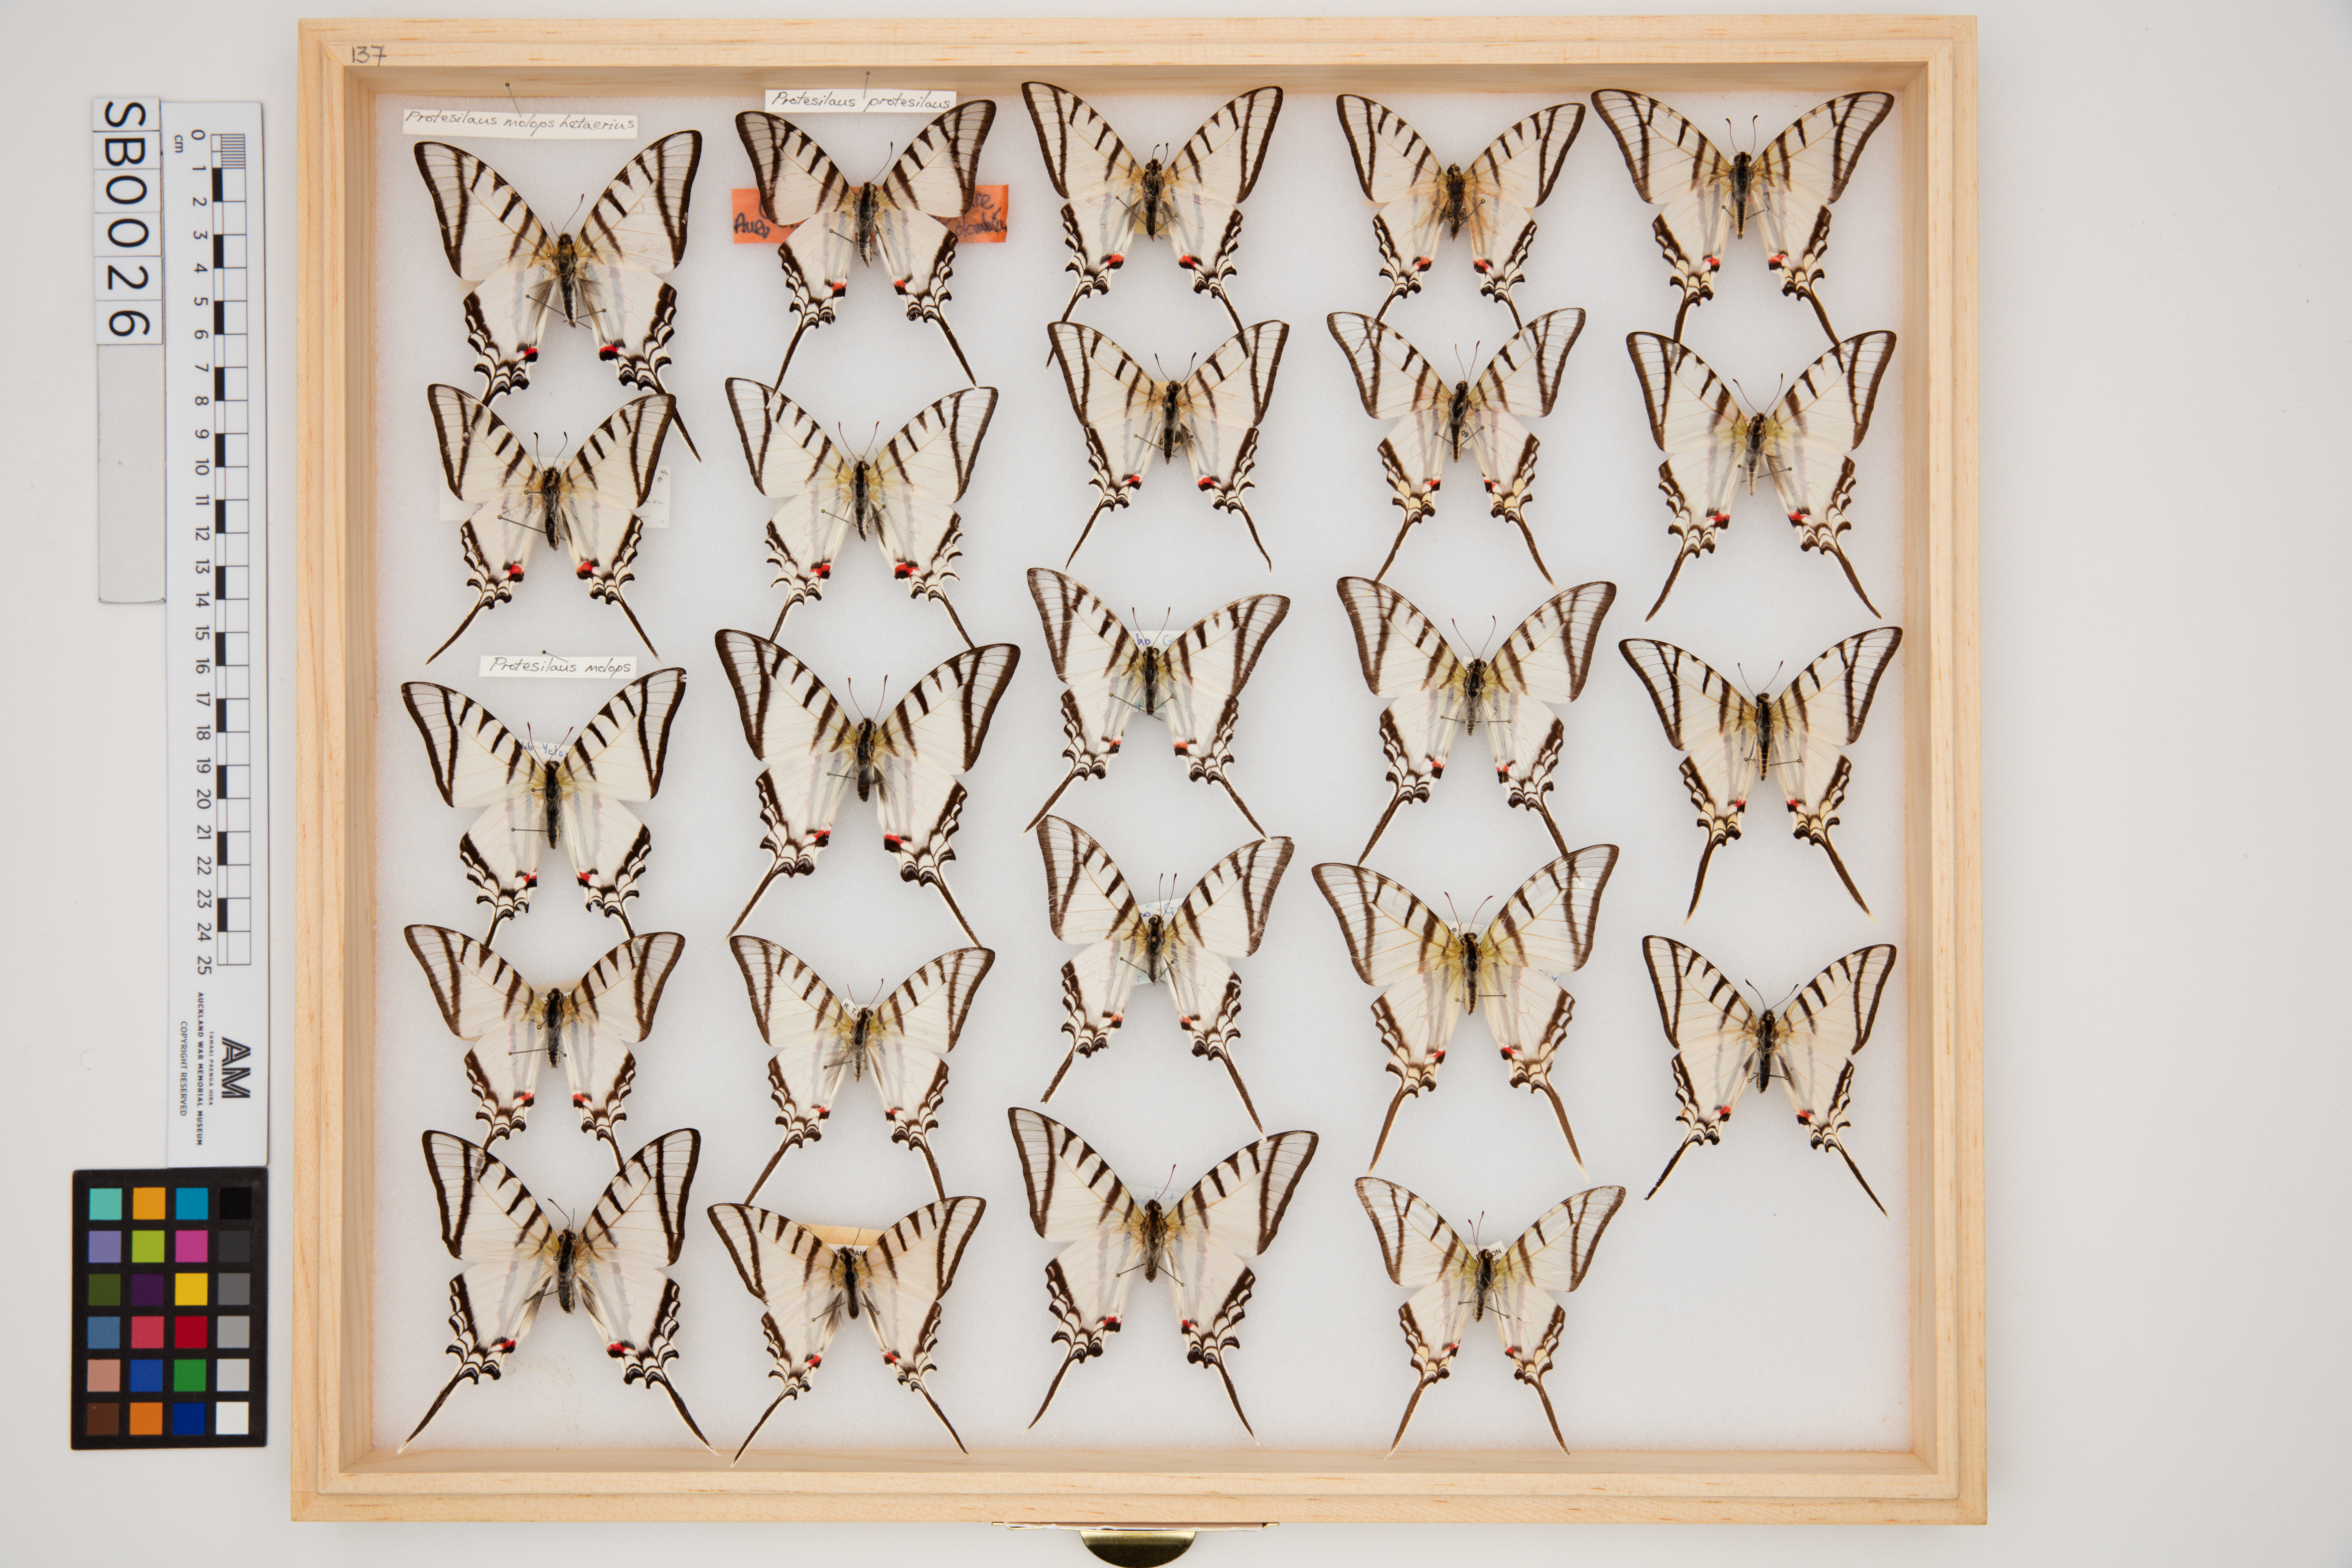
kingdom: Animalia
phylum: Arthropoda
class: Insecta
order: Lepidoptera
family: Papilionidae
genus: Protesilaus
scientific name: Protesilaus protesilaus
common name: Great kite-swallowtail
